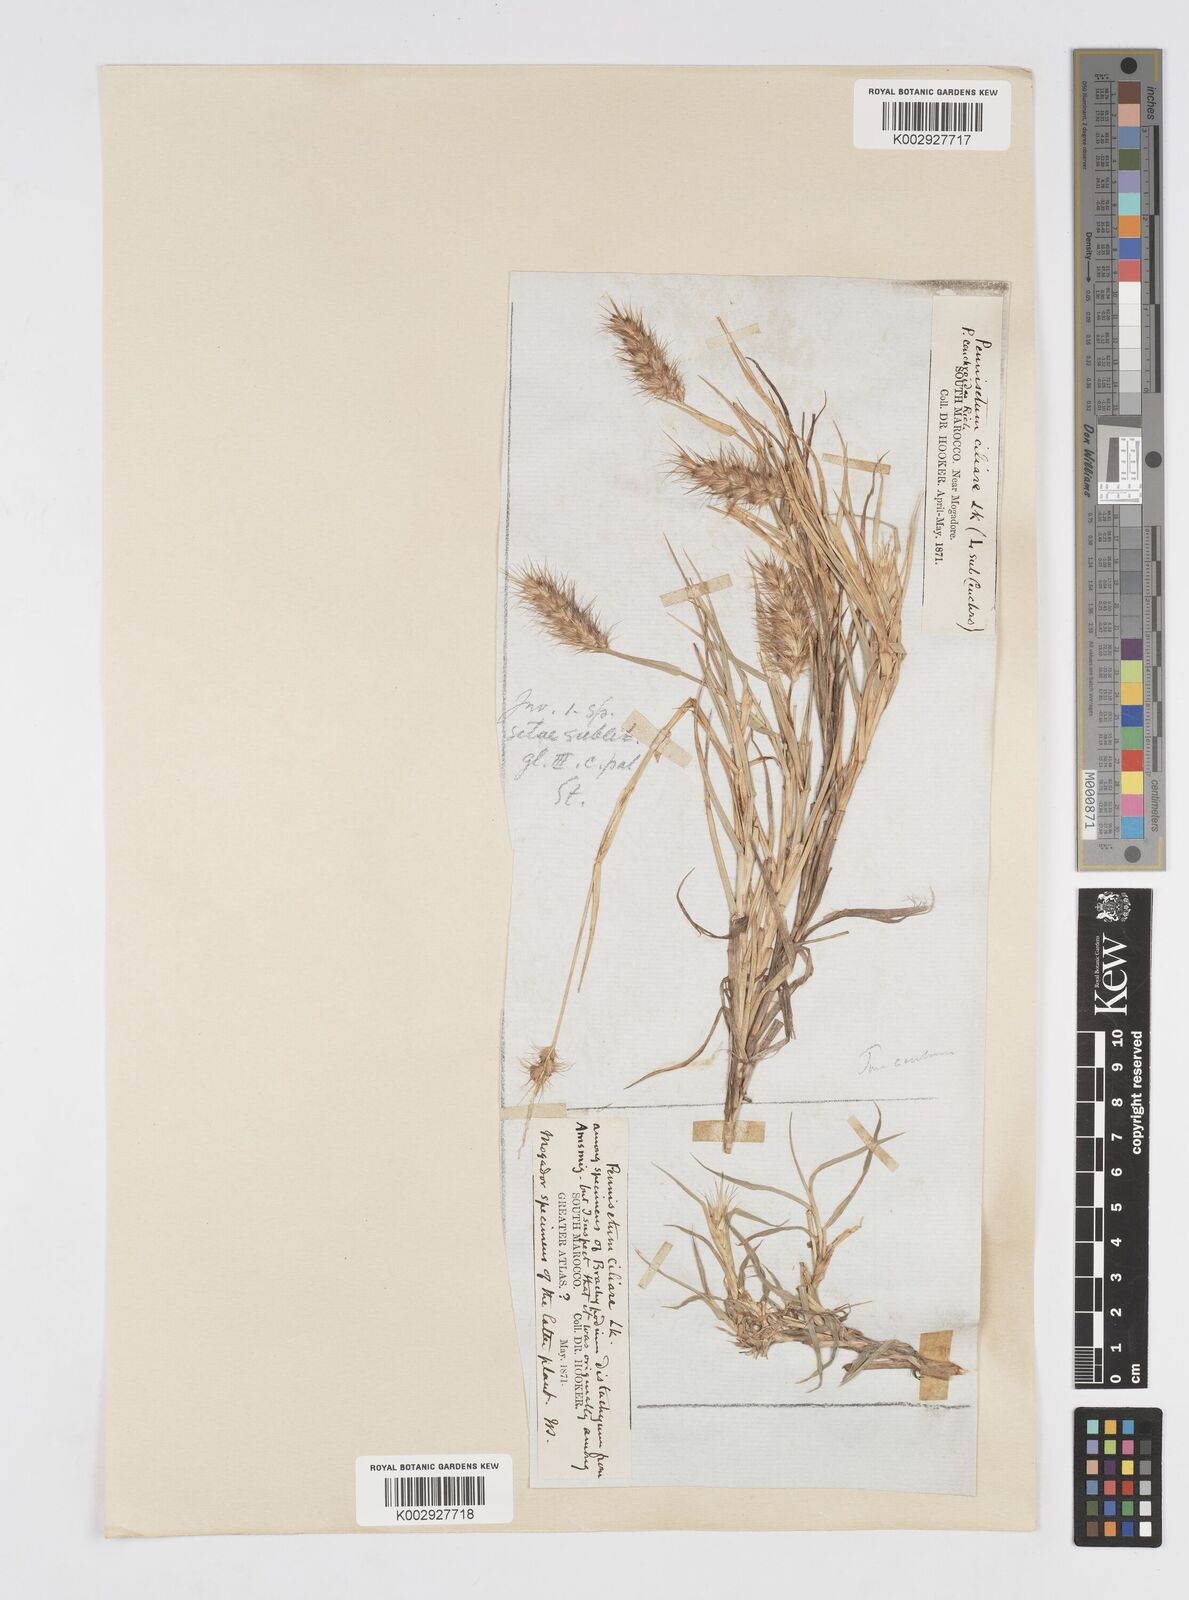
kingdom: Plantae
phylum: Tracheophyta
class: Liliopsida
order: Poales
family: Poaceae
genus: Cenchrus
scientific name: Cenchrus ciliaris
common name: Buffelgrass
